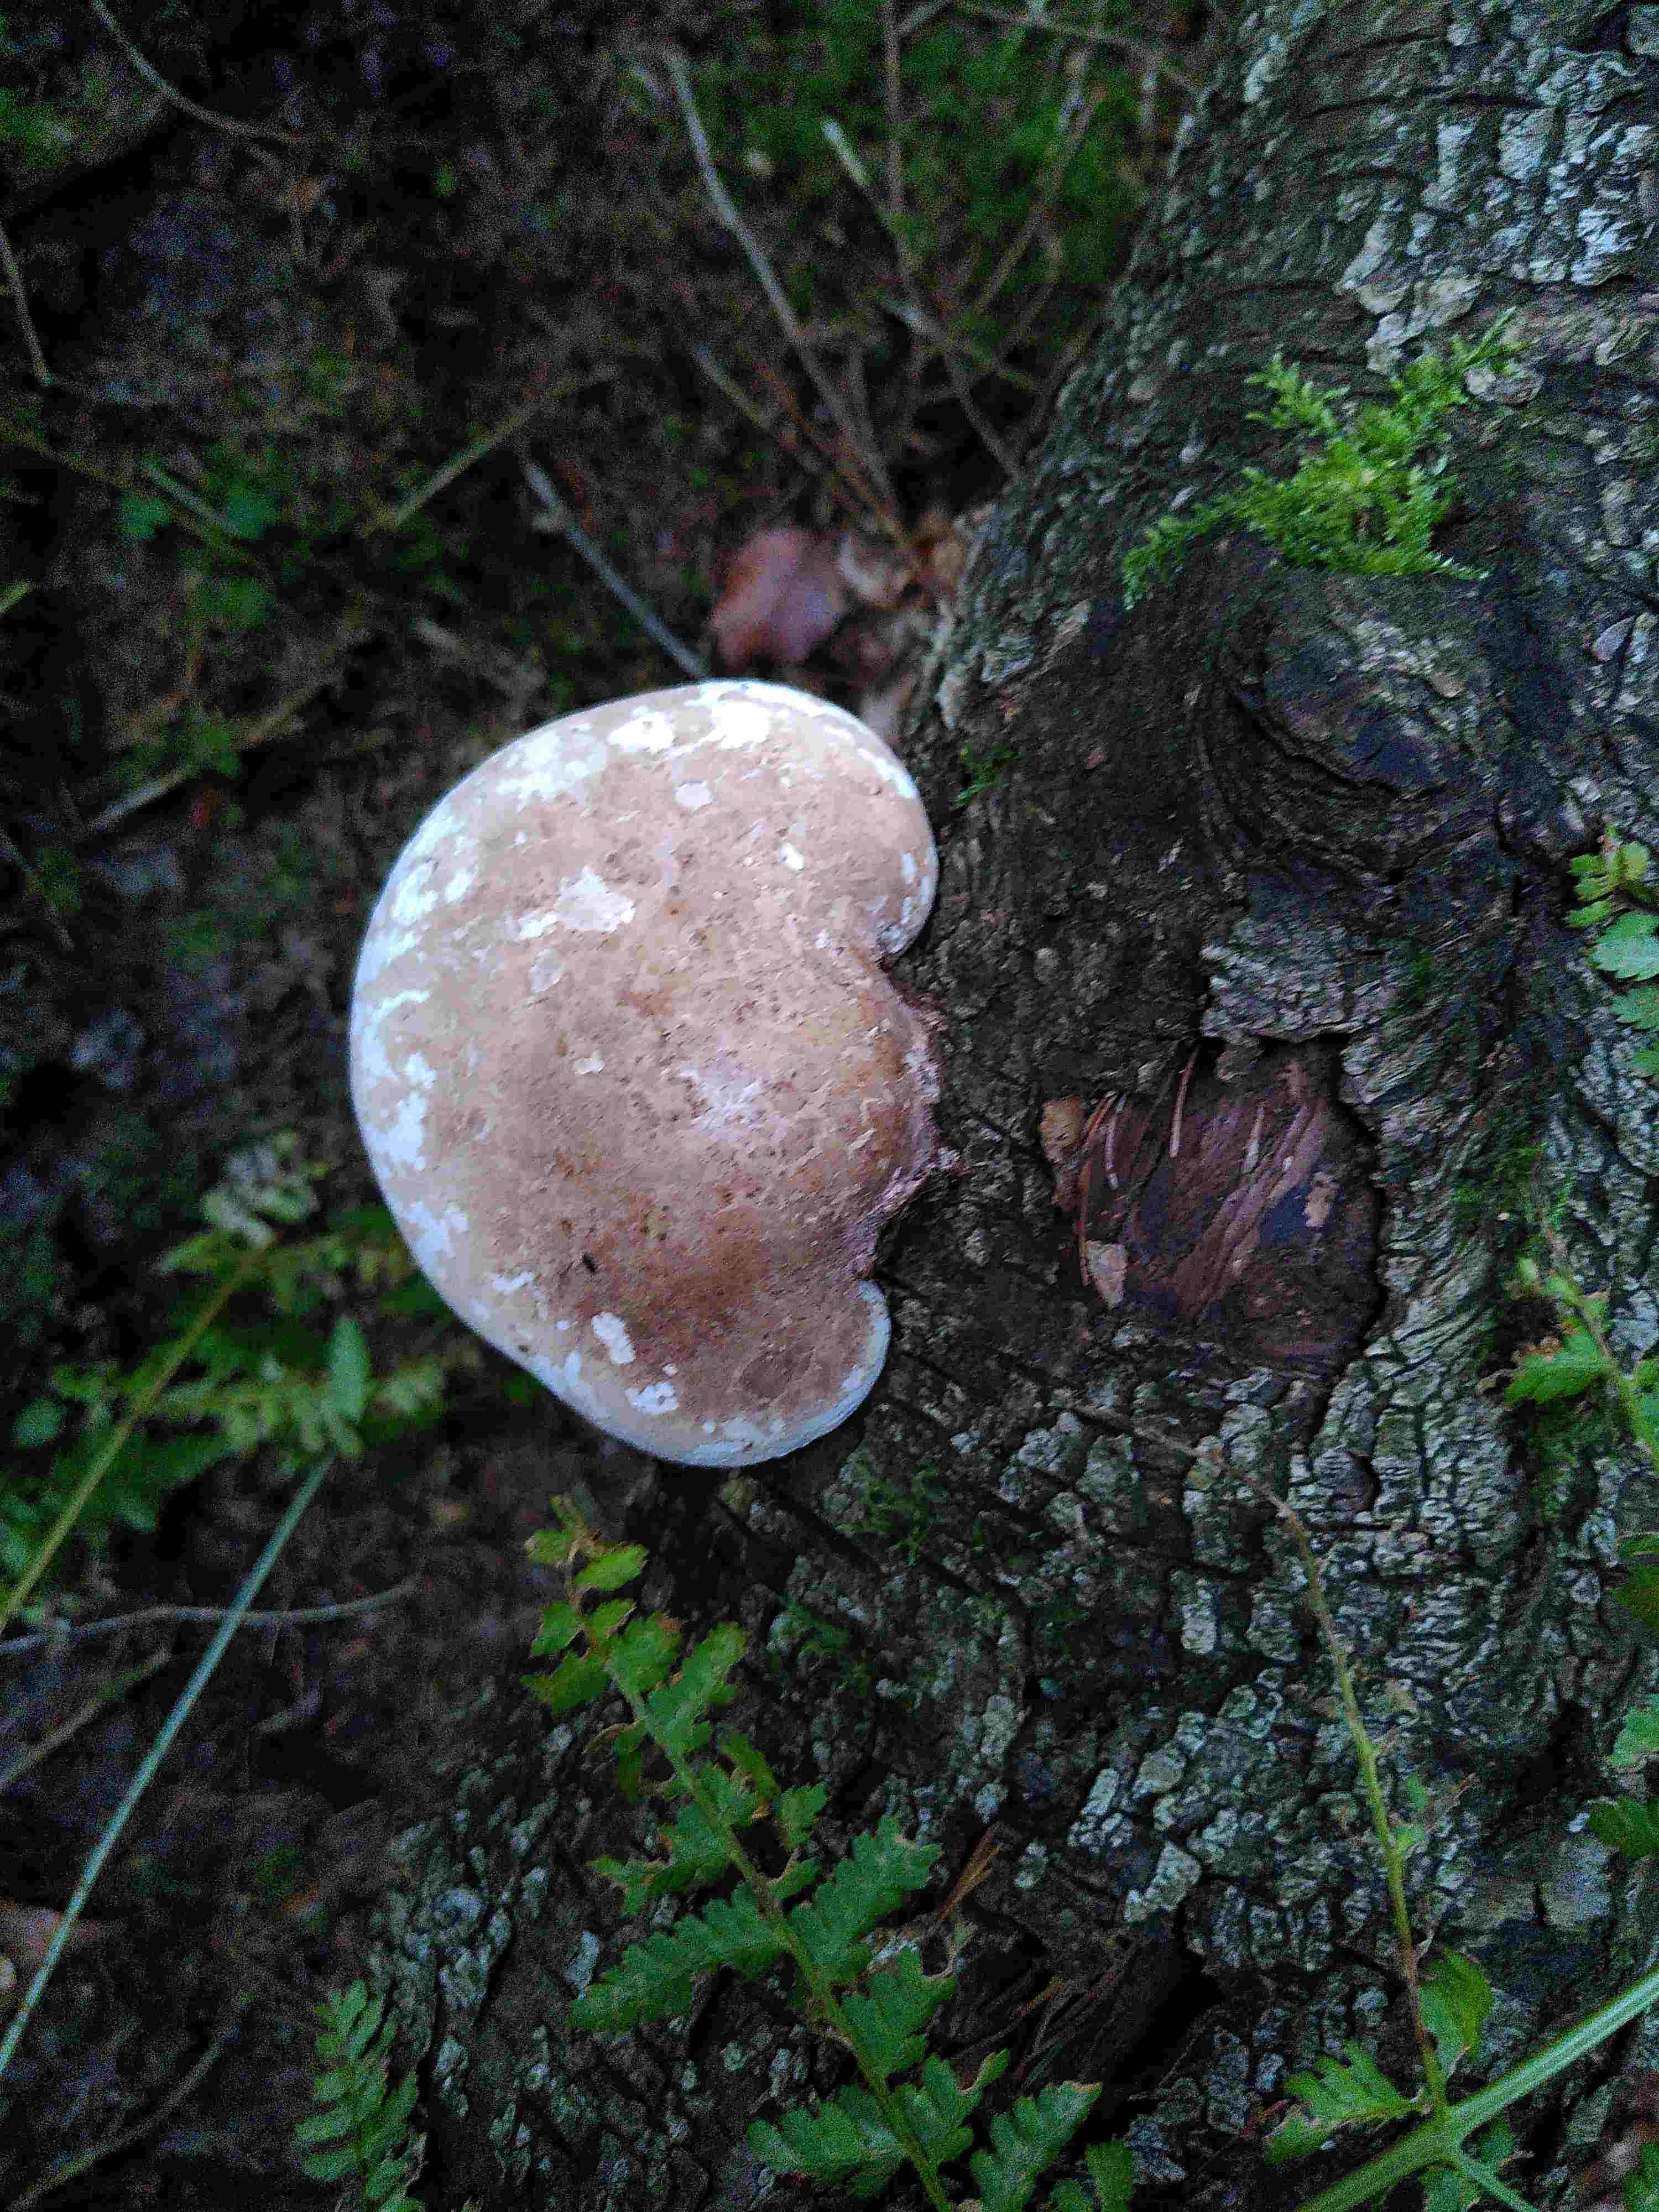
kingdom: Fungi
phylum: Basidiomycota
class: Agaricomycetes
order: Polyporales
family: Fomitopsidaceae
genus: Fomitopsis
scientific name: Fomitopsis betulina
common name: birkeporesvamp
